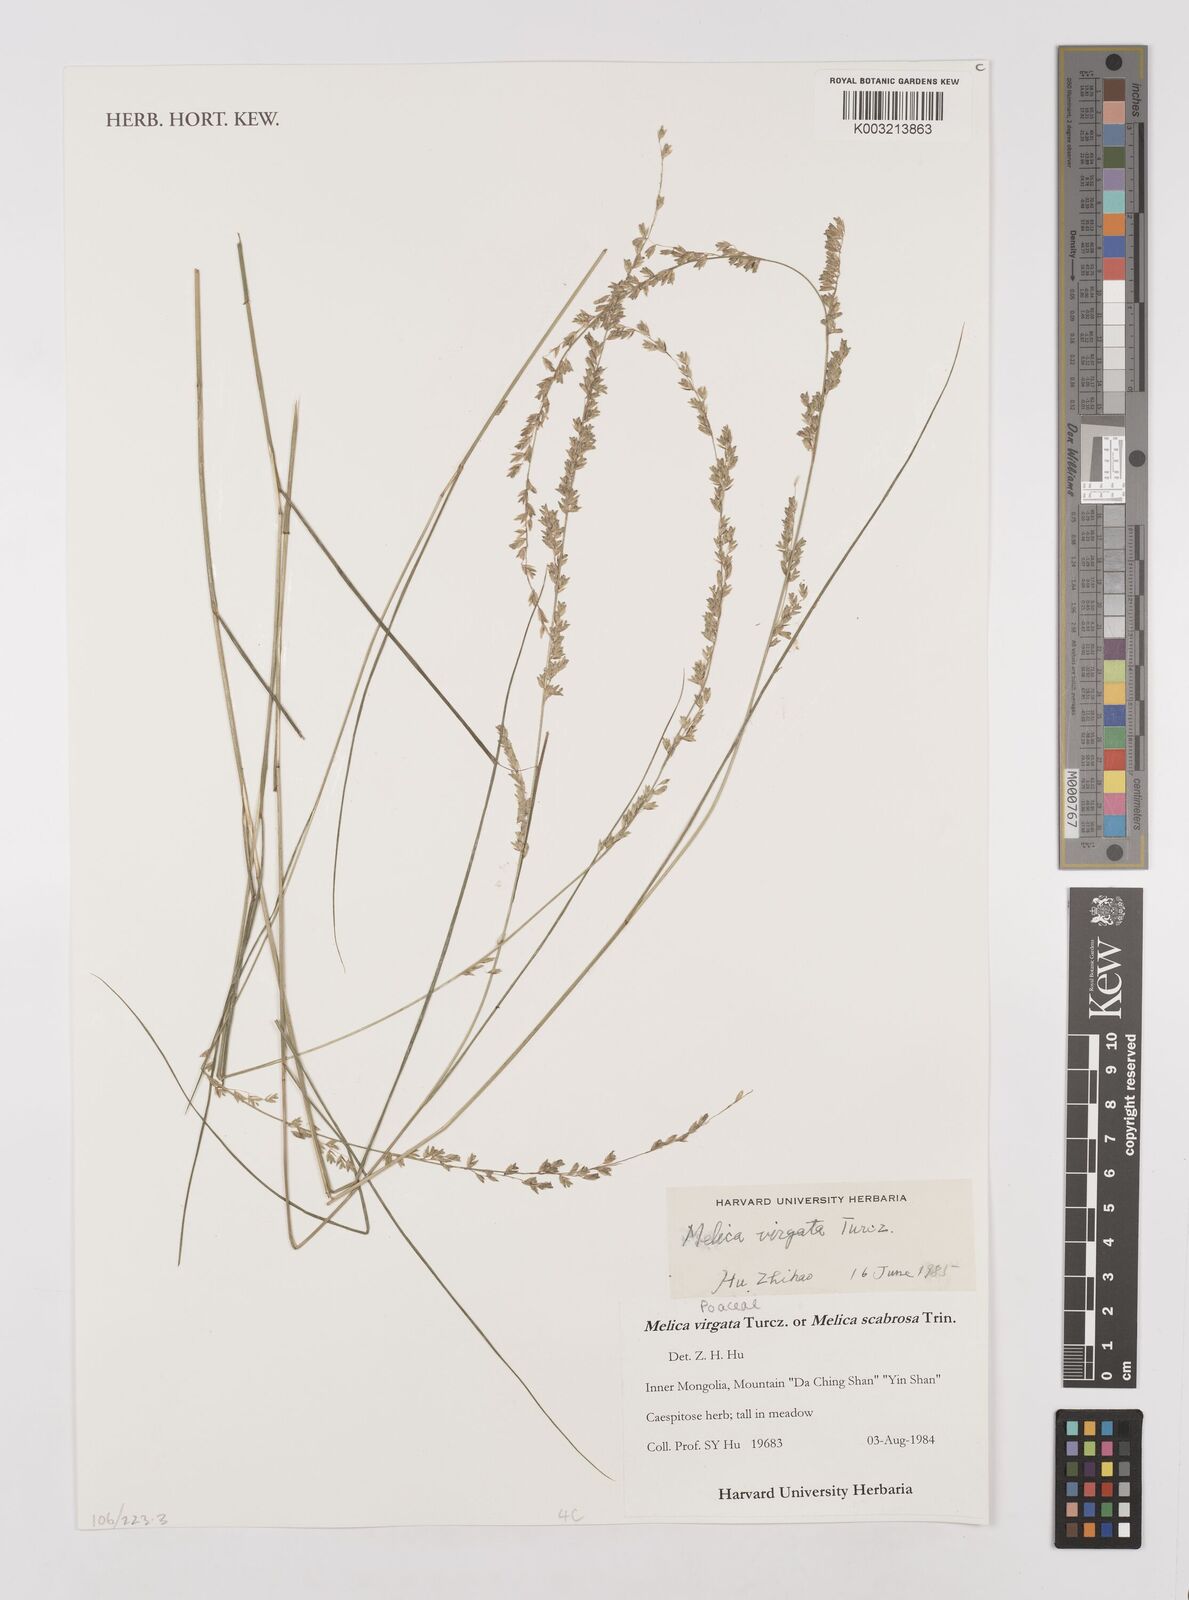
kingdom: Plantae
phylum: Tracheophyta
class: Liliopsida
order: Poales
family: Poaceae
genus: Melica
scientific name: Melica virgata
